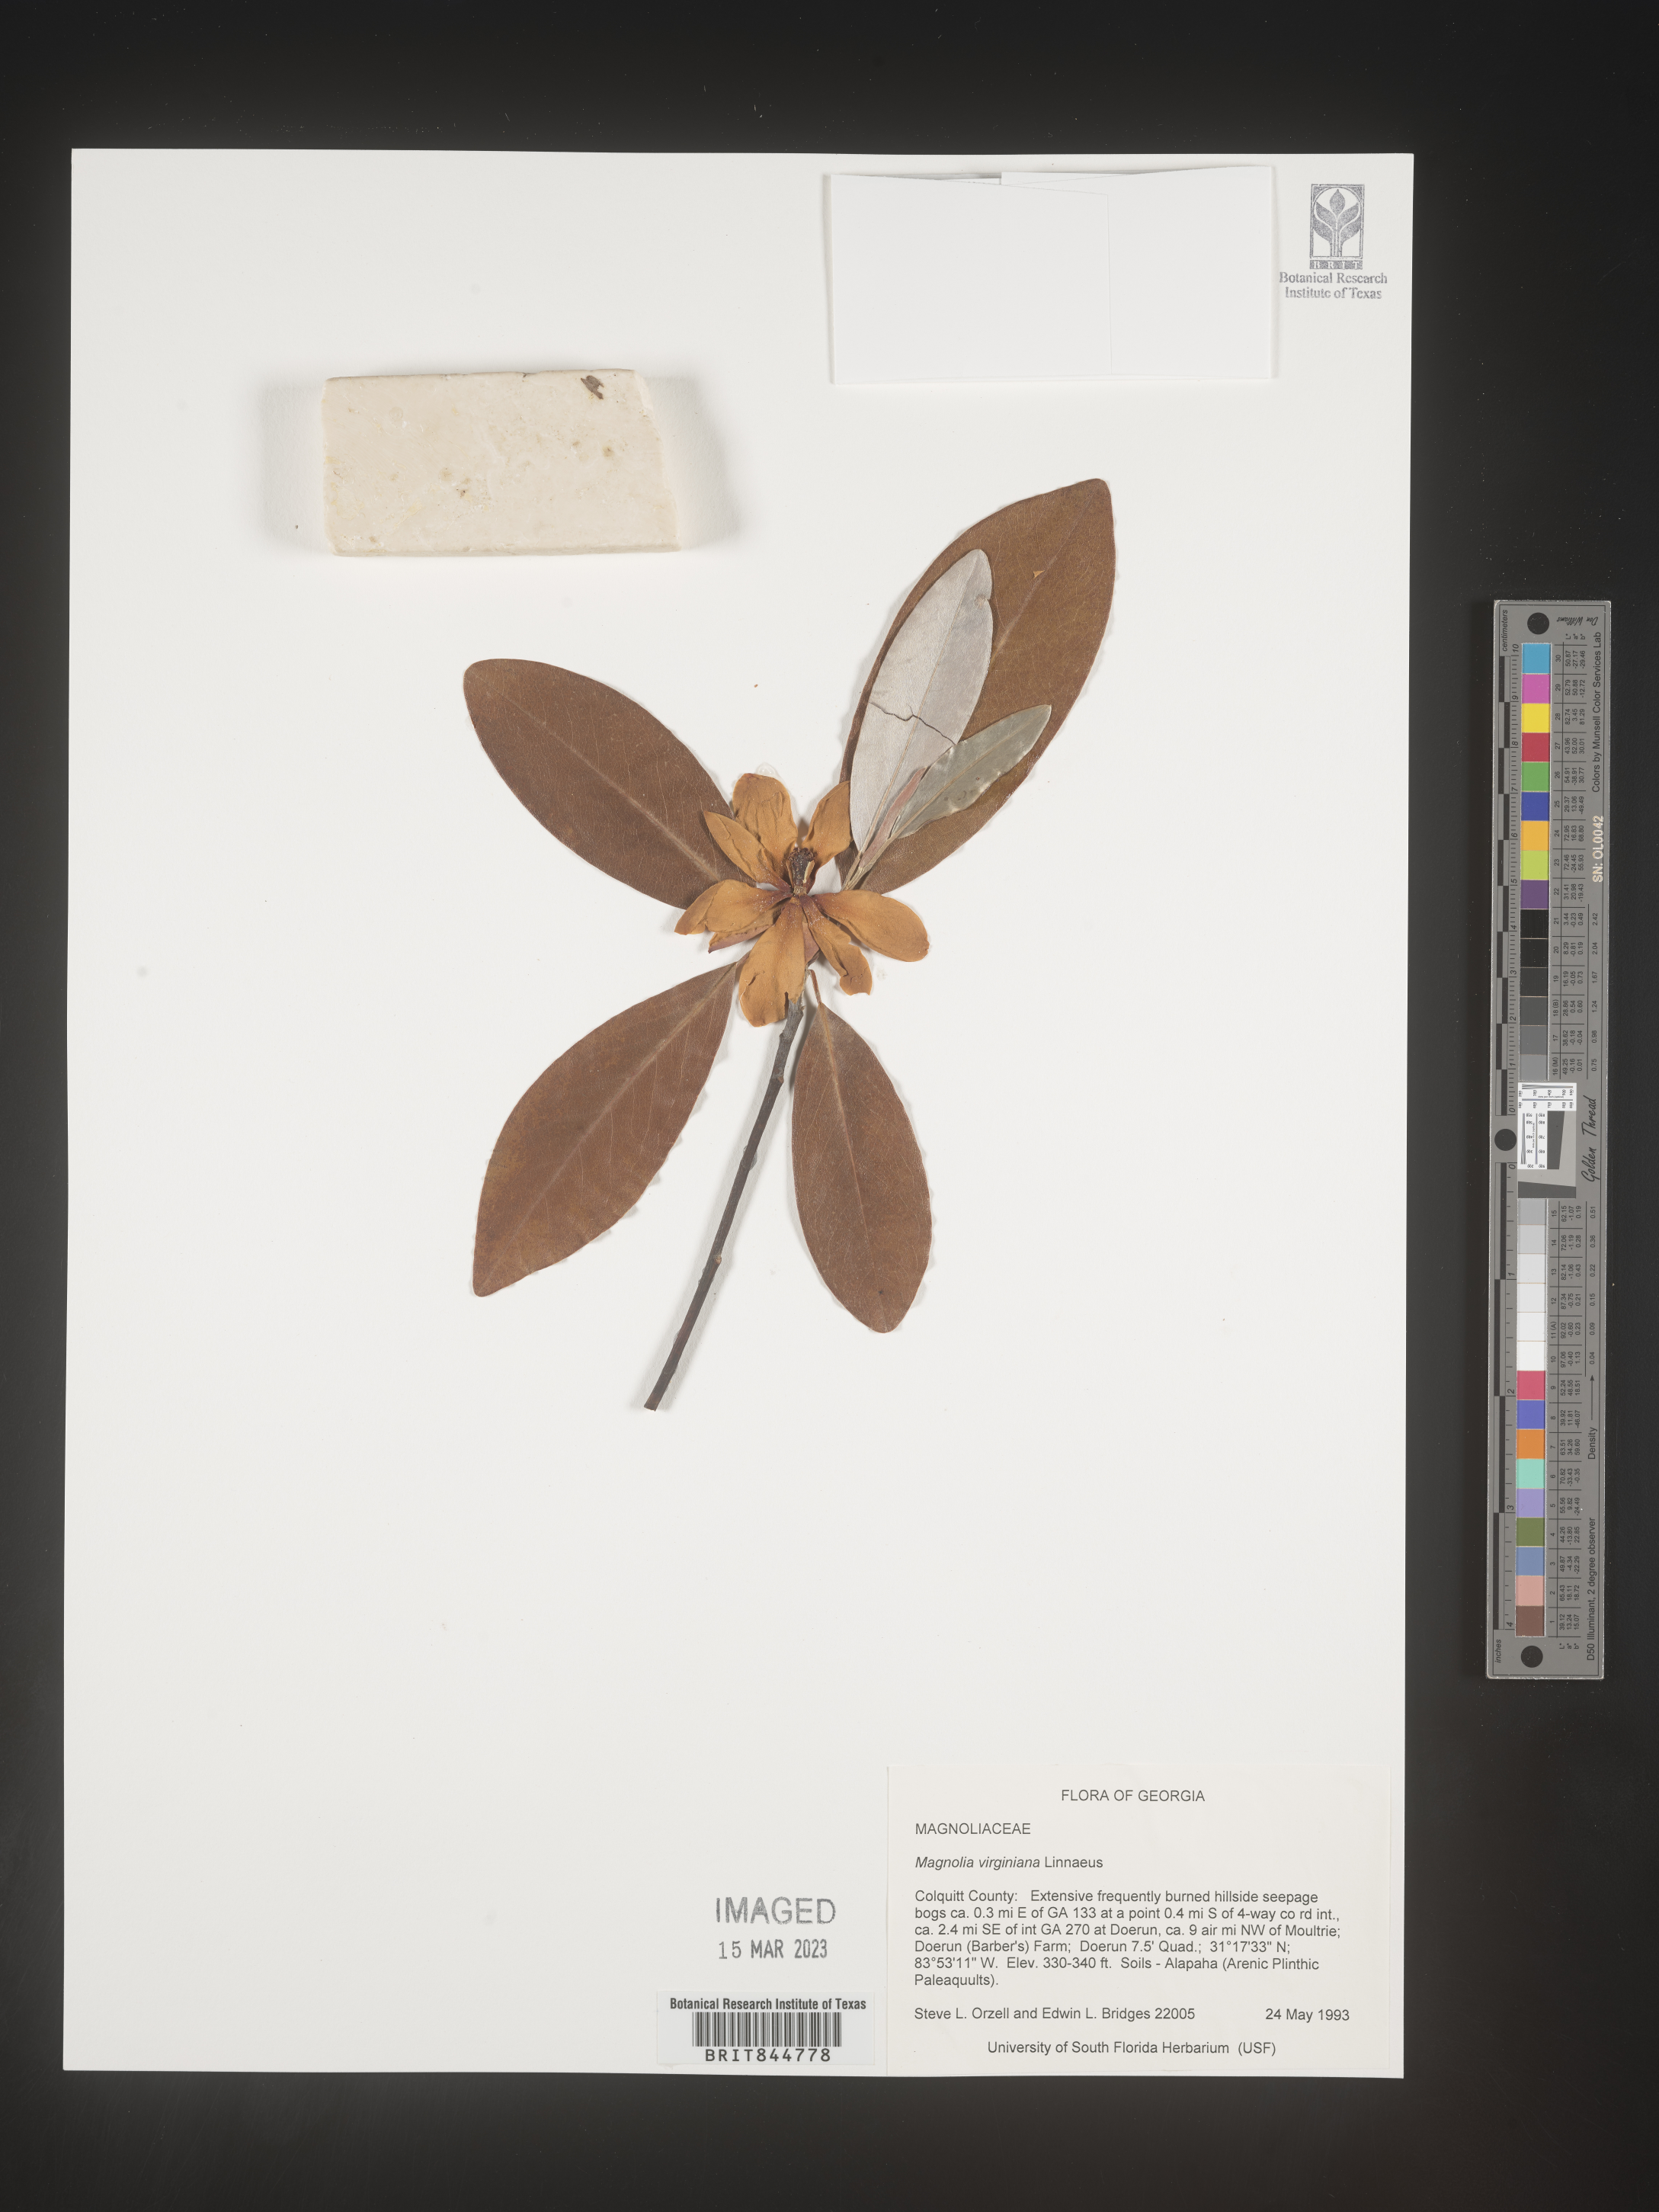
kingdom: Plantae
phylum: Tracheophyta
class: Magnoliopsida
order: Magnoliales
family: Magnoliaceae
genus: Magnolia
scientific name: Magnolia virginiana
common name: Swamp bay
